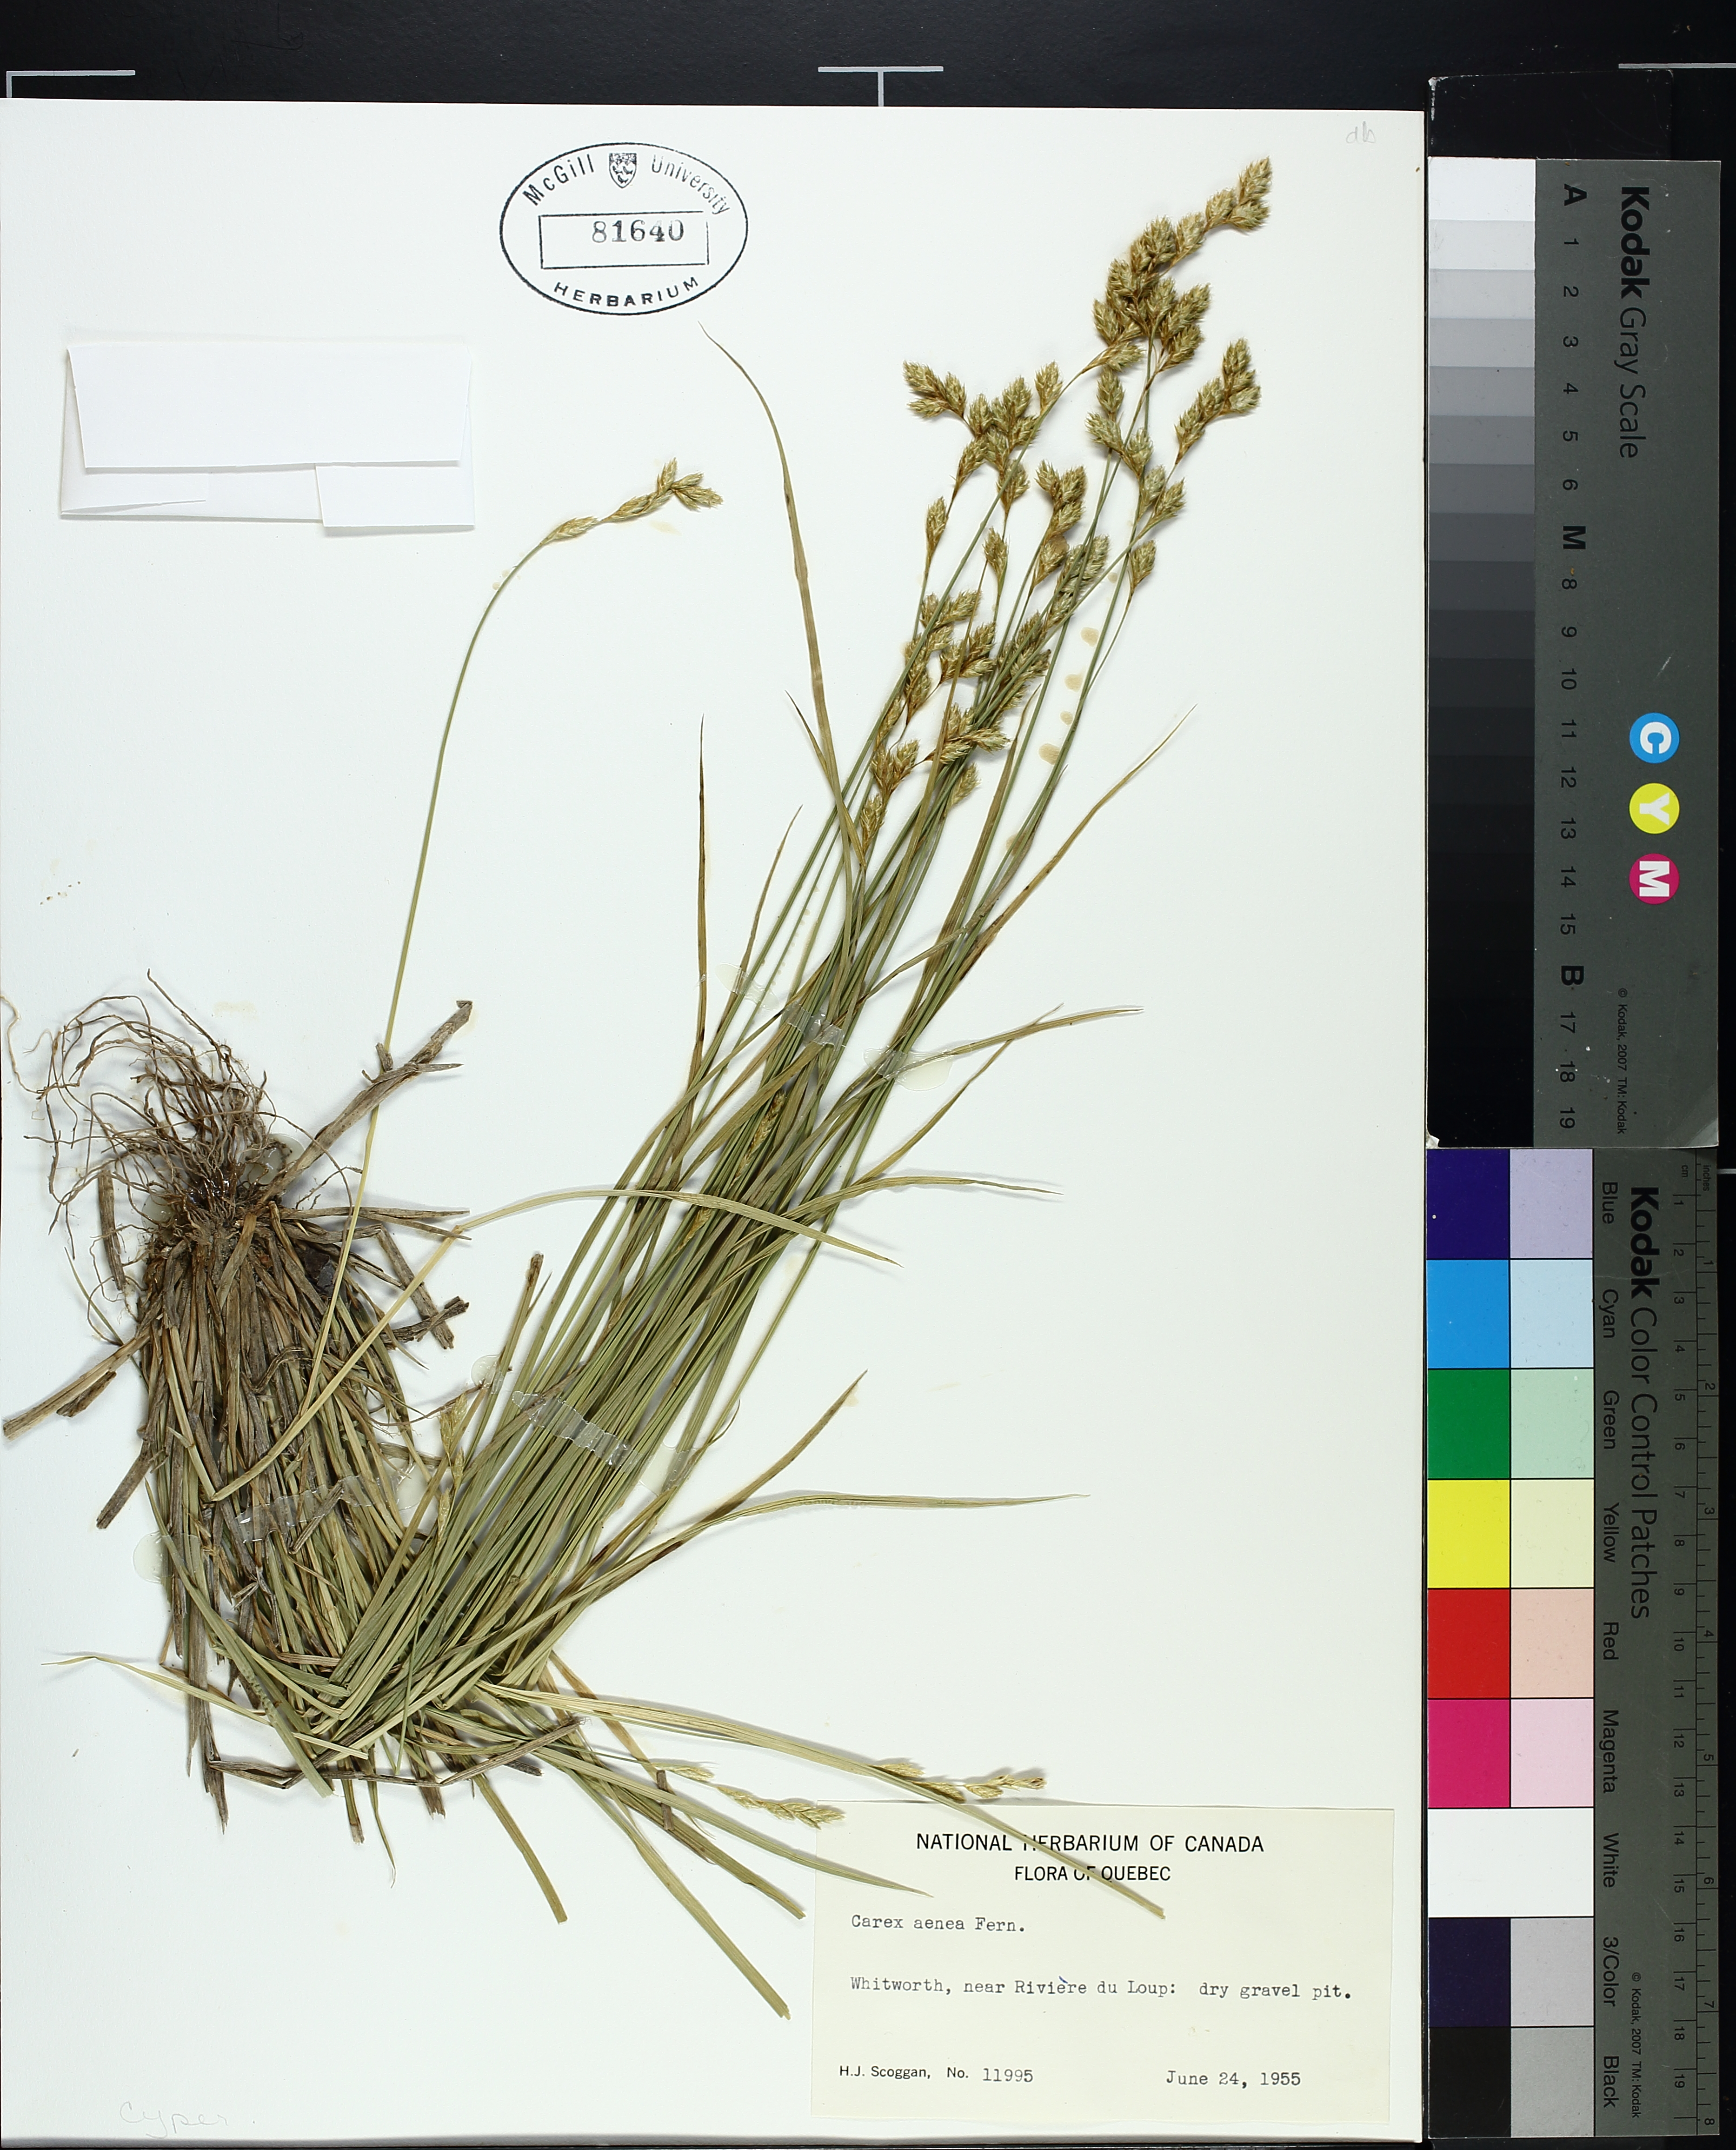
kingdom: Plantae
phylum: Tracheophyta
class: Liliopsida
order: Poales
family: Cyperaceae
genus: Carex
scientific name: Carex foenea
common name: Bronze sedge
